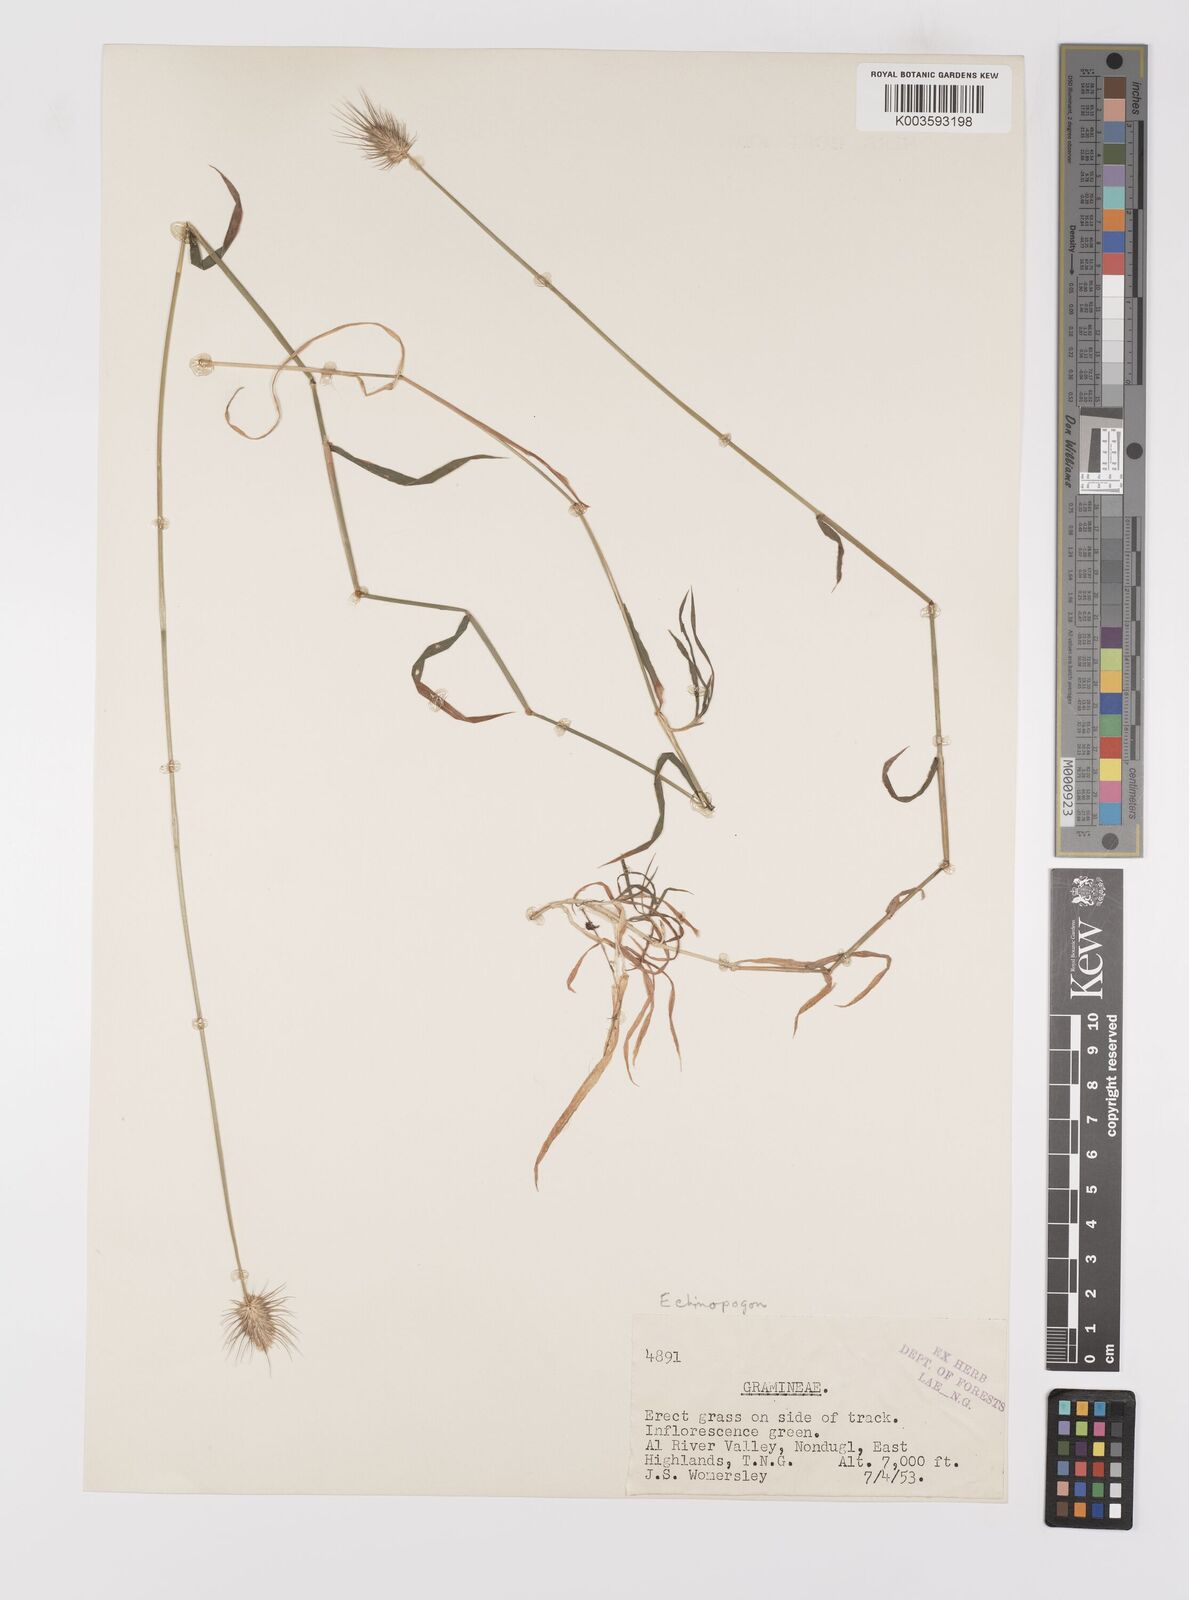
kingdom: Plantae
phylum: Tracheophyta
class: Liliopsida
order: Poales
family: Poaceae
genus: Echinopogon
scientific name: Echinopogon ovatus
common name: Hedgehog-grass
